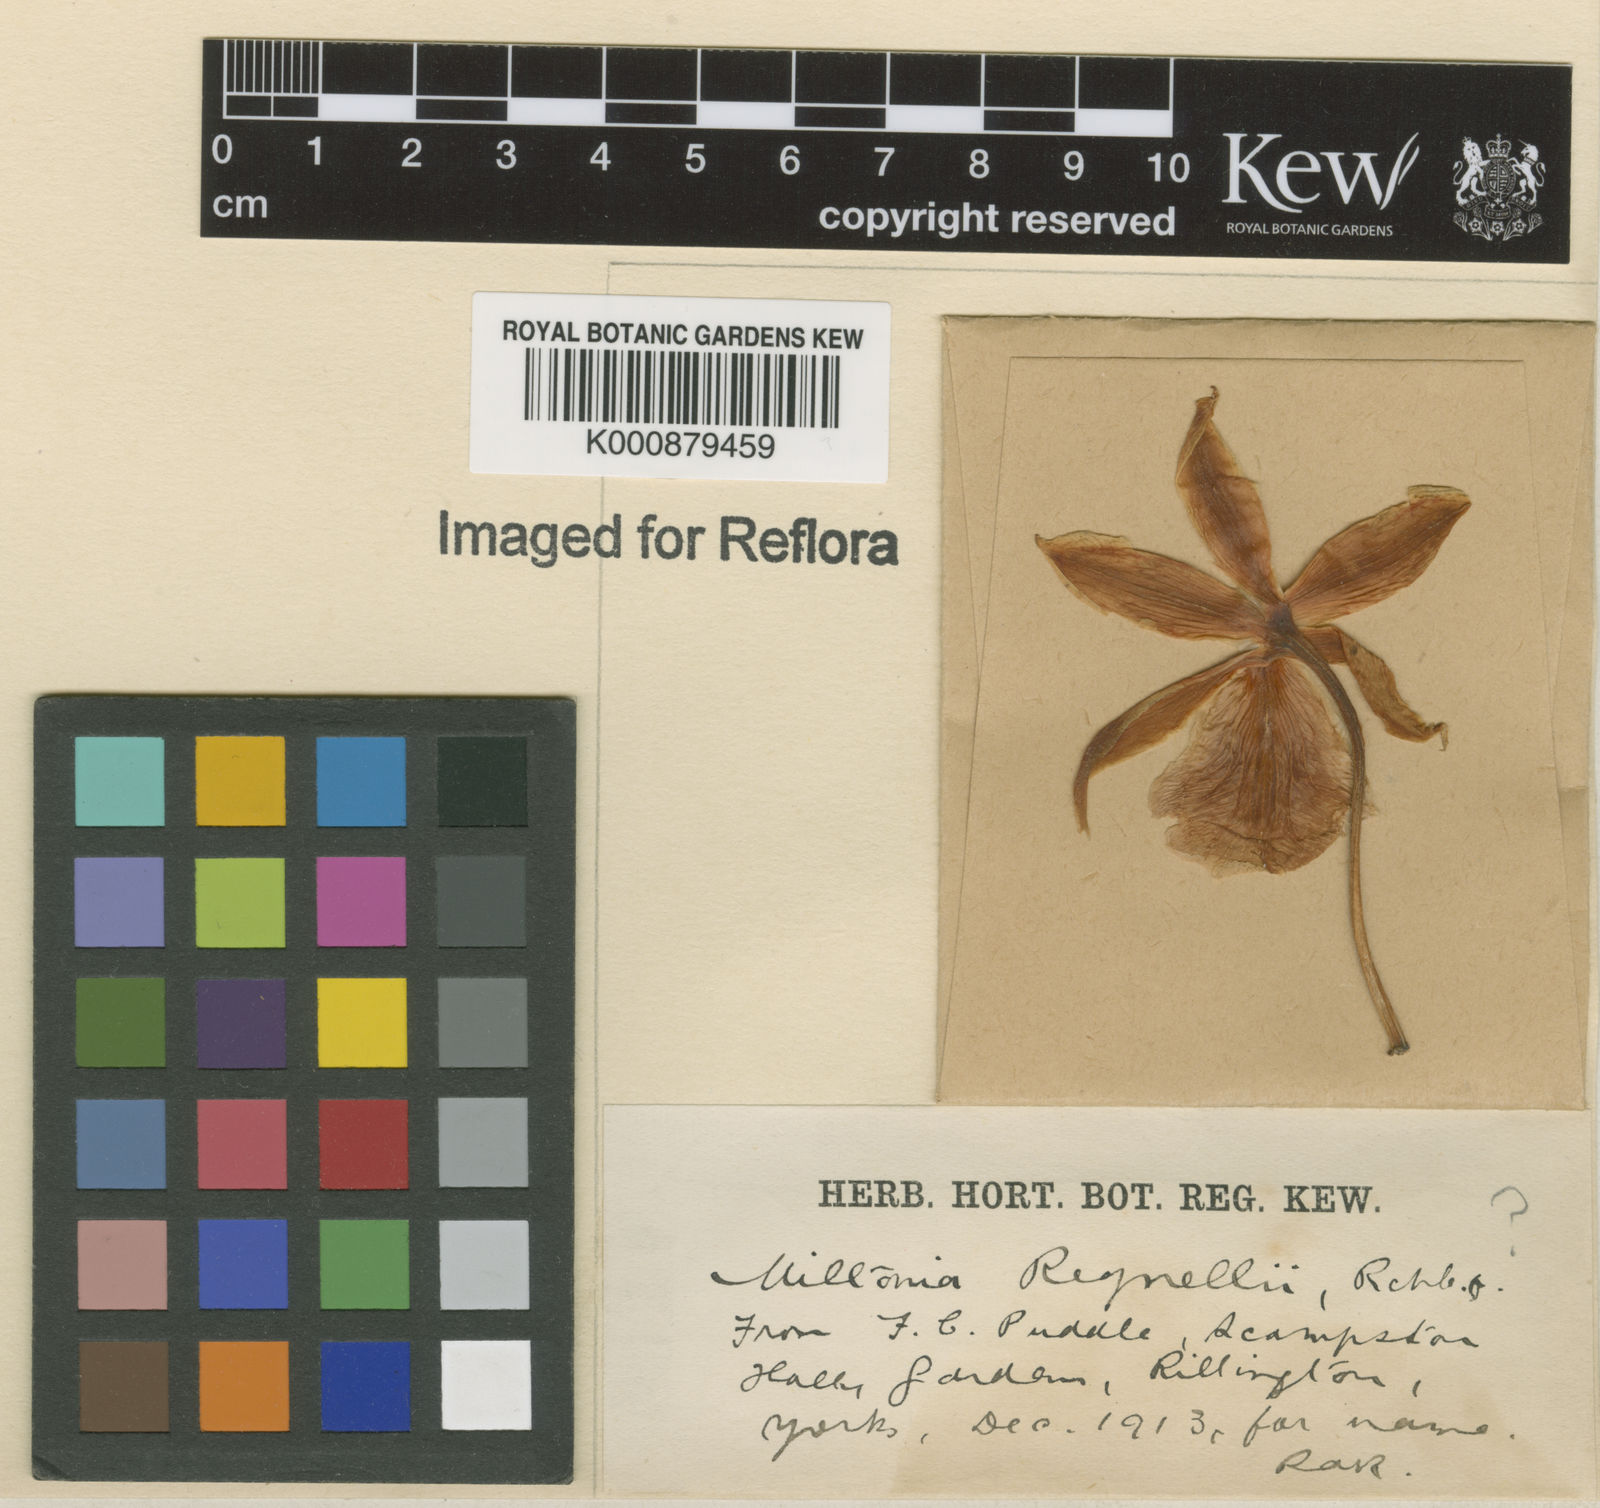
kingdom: Plantae
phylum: Tracheophyta
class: Liliopsida
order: Asparagales
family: Orchidaceae
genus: Miltonia
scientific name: Miltonia regnellii
